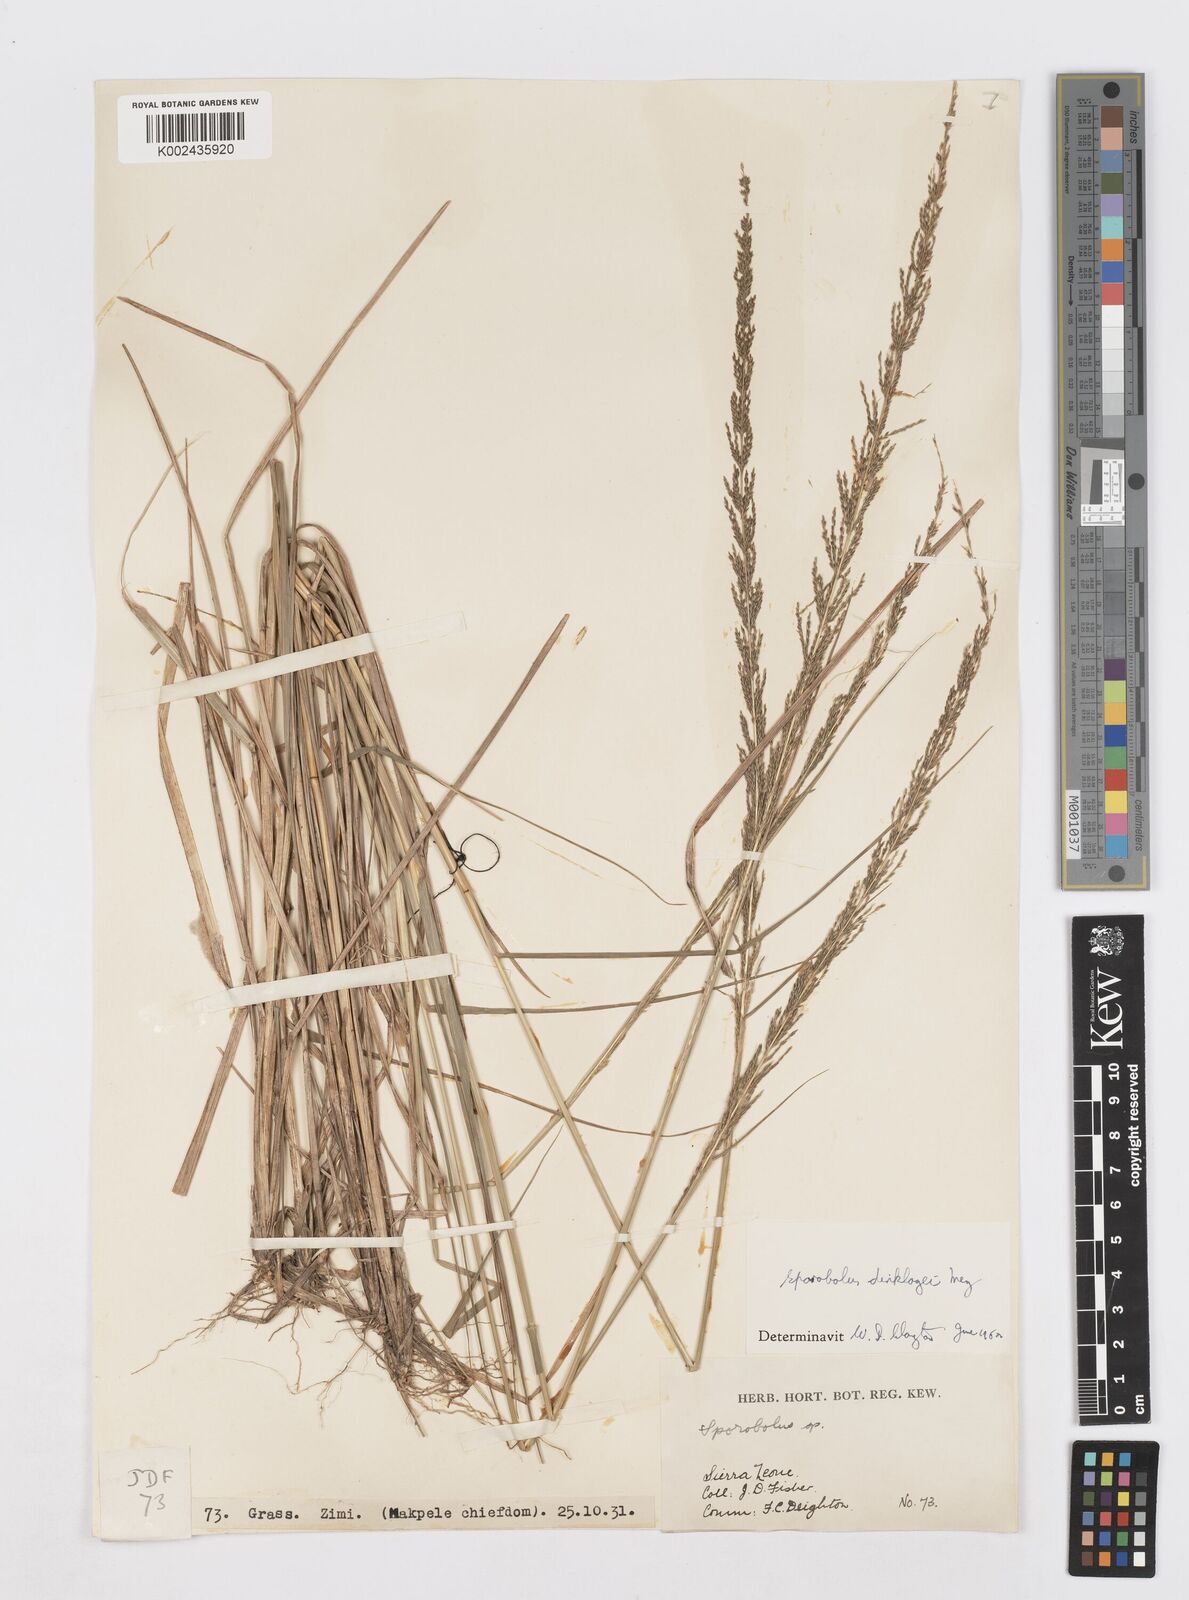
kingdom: Plantae
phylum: Tracheophyta
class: Liliopsida
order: Poales
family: Poaceae
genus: Sporobolus
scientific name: Sporobolus dinklagei
